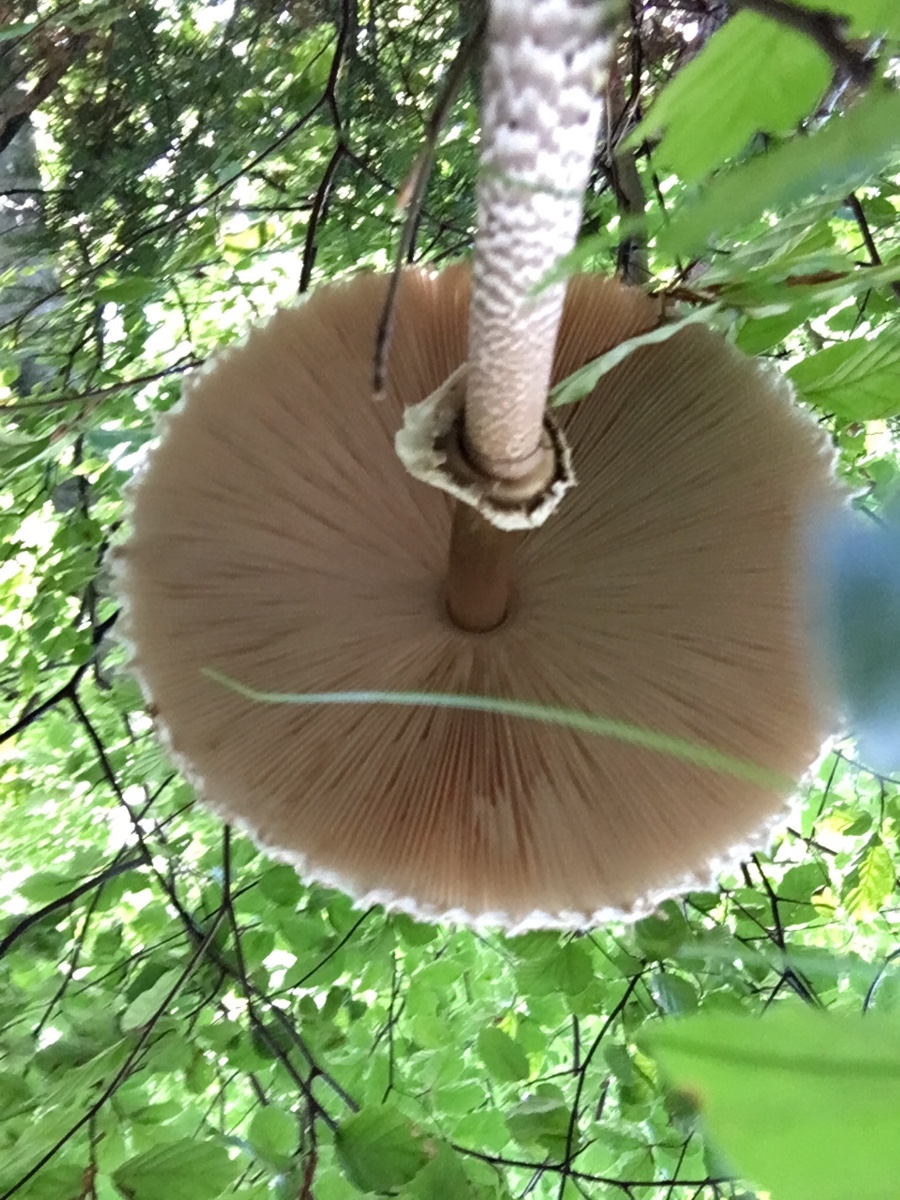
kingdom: Fungi
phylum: Basidiomycota
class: Agaricomycetes
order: Agaricales
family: Agaricaceae
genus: Macrolepiota
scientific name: Macrolepiota procera
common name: stor kæmpeparasolhat
